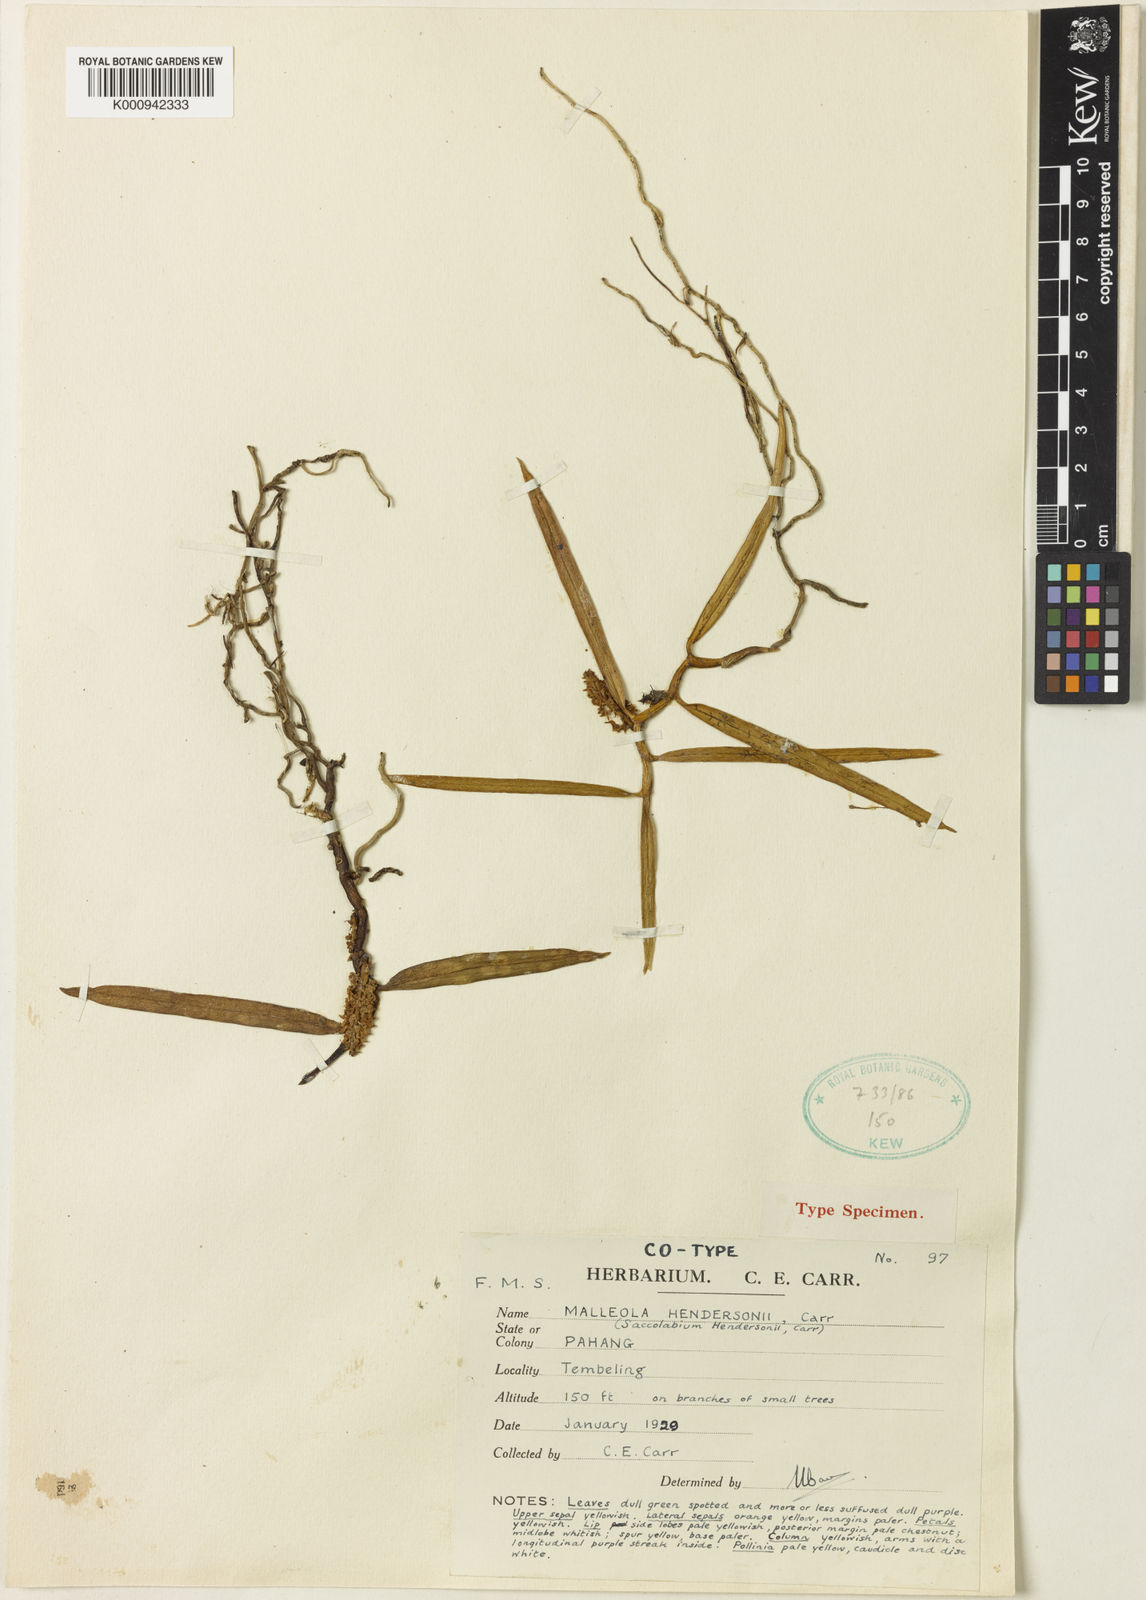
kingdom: Plantae
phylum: Tracheophyta
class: Liliopsida
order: Asparagales
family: Orchidaceae
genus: Robiquetia
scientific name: Robiquetia penangiana
